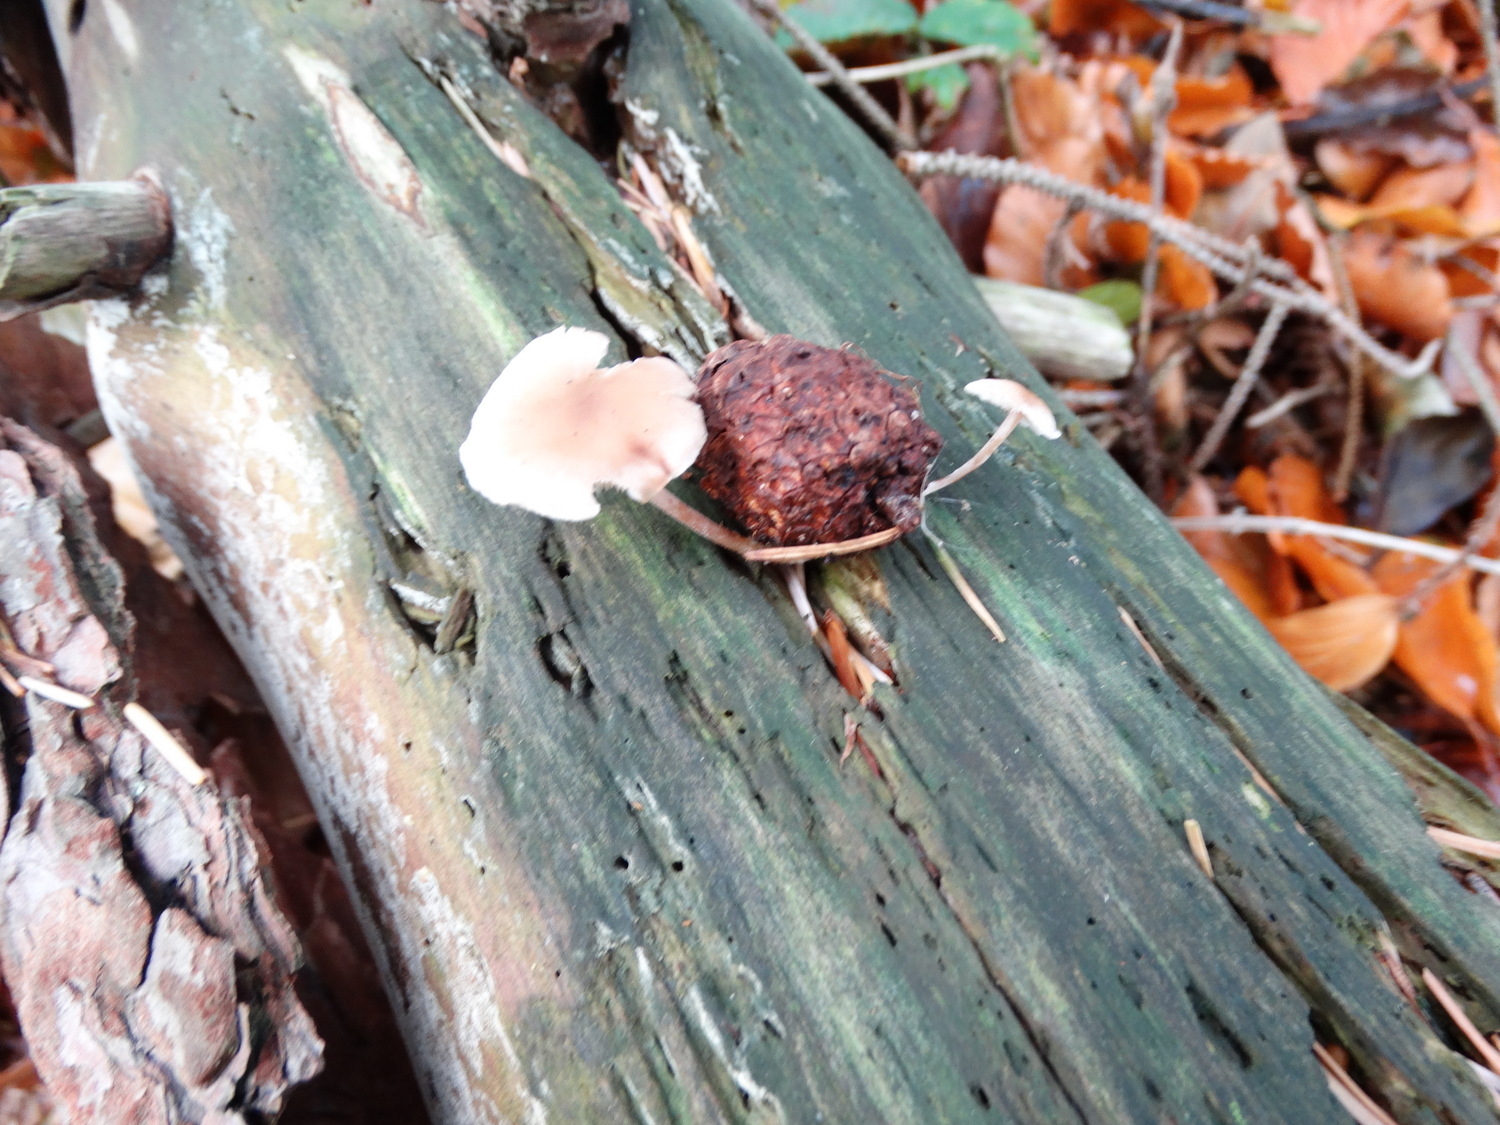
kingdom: Fungi
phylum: Basidiomycota
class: Agaricomycetes
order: Agaricales
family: Marasmiaceae
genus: Baeospora
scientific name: Baeospora myosura
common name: koglebruskhat
